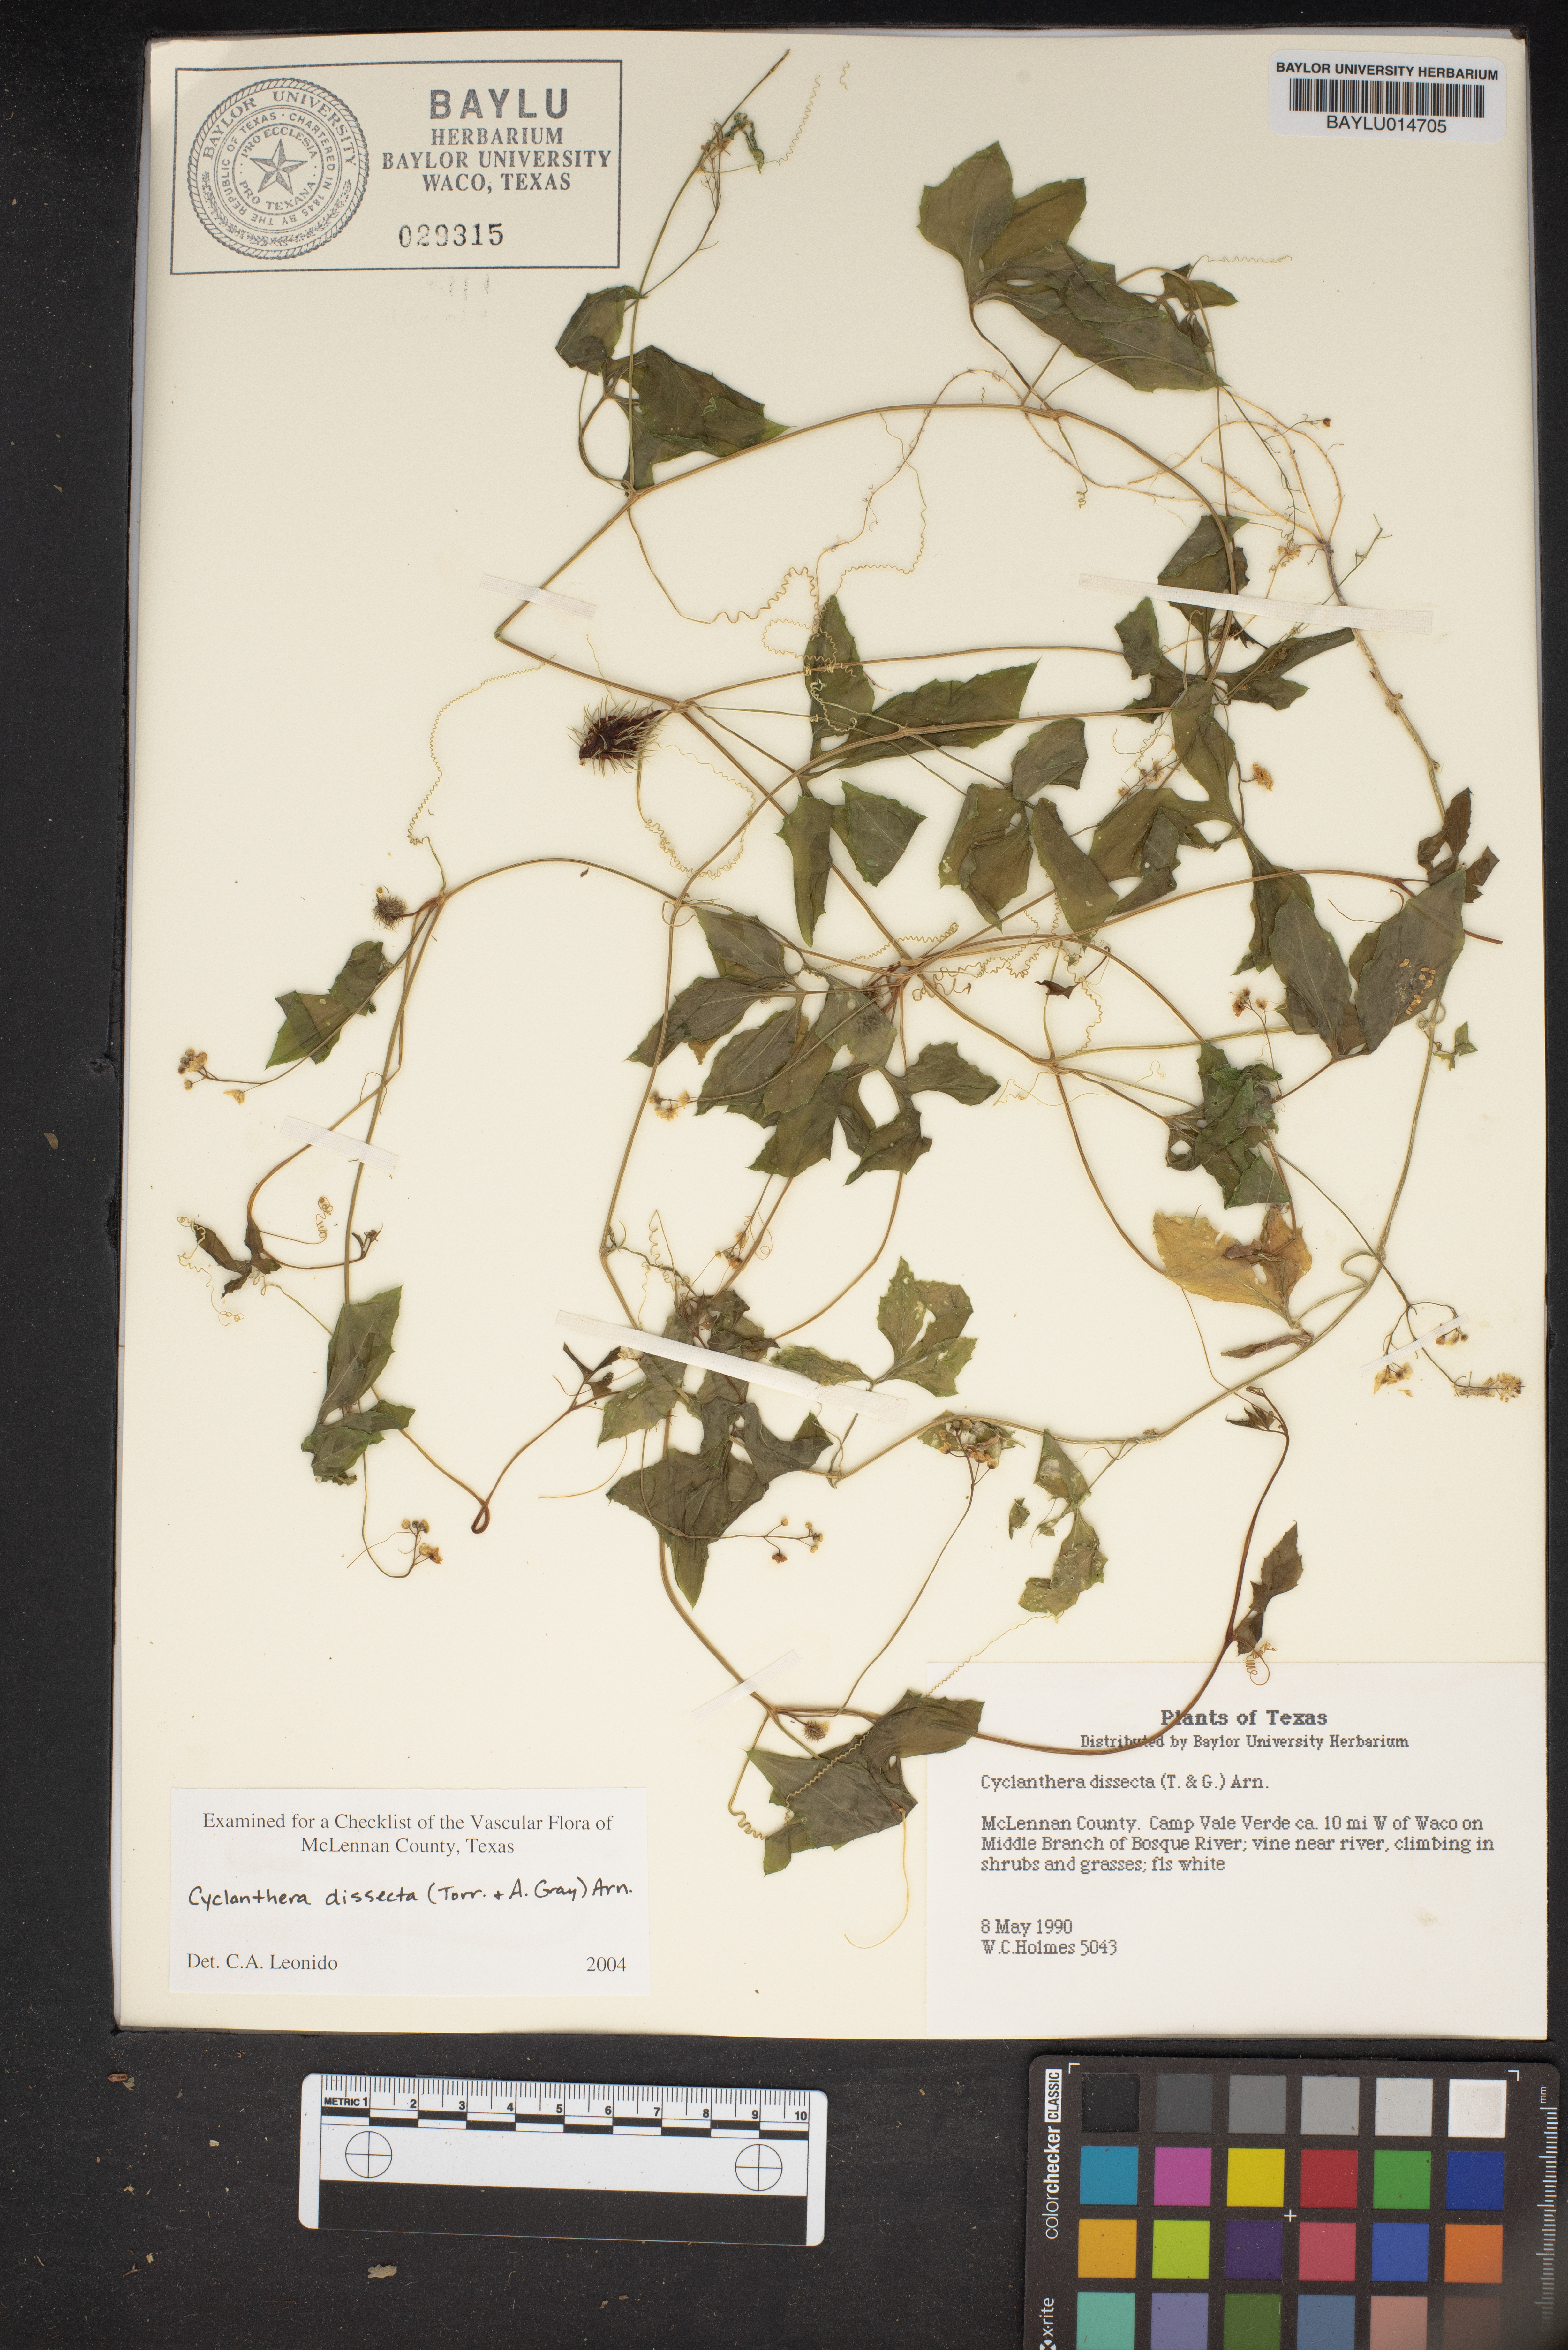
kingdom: Plantae
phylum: Tracheophyta
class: Magnoliopsida
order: Cucurbitales
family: Cucurbitaceae
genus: Cyclanthera
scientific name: Cyclanthera dissecta
